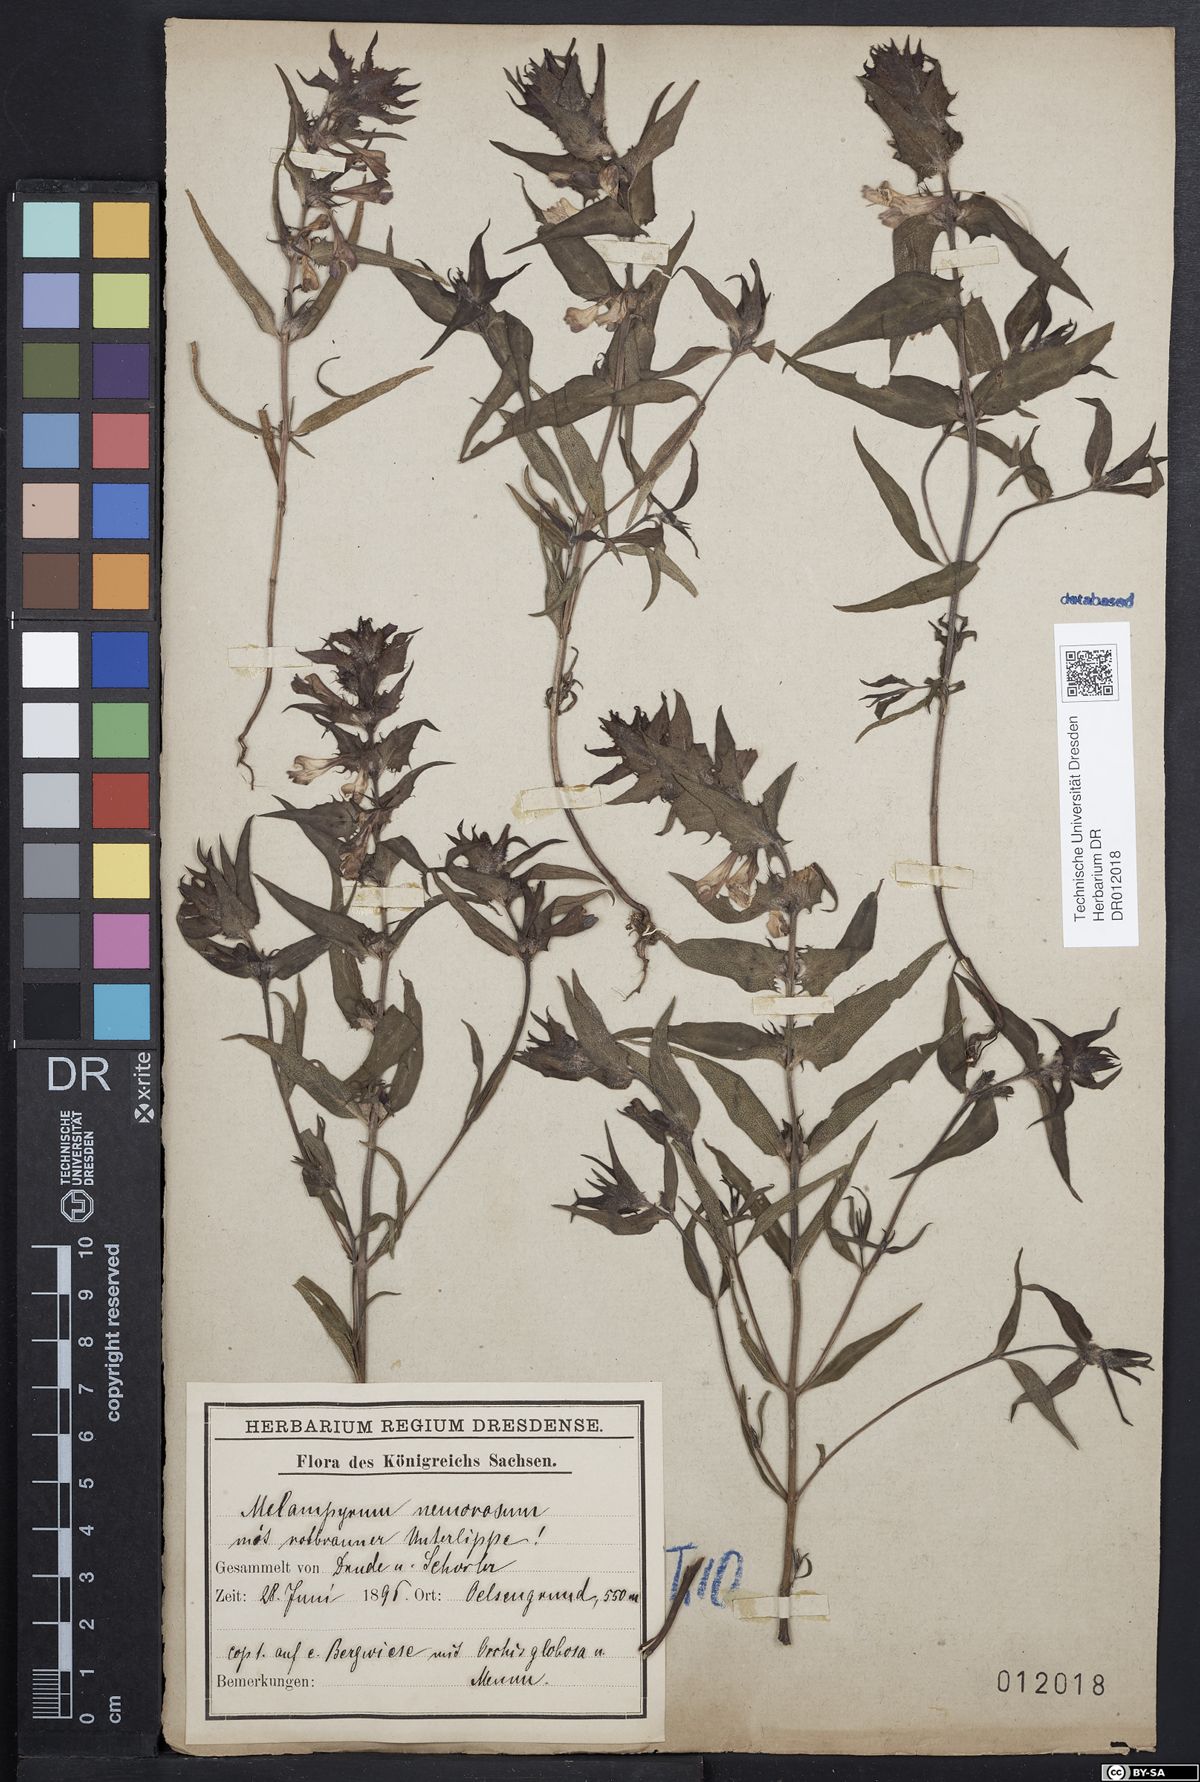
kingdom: Plantae
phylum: Tracheophyta
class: Magnoliopsida
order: Lamiales
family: Orobanchaceae
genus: Melampyrum
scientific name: Melampyrum nemorosum
